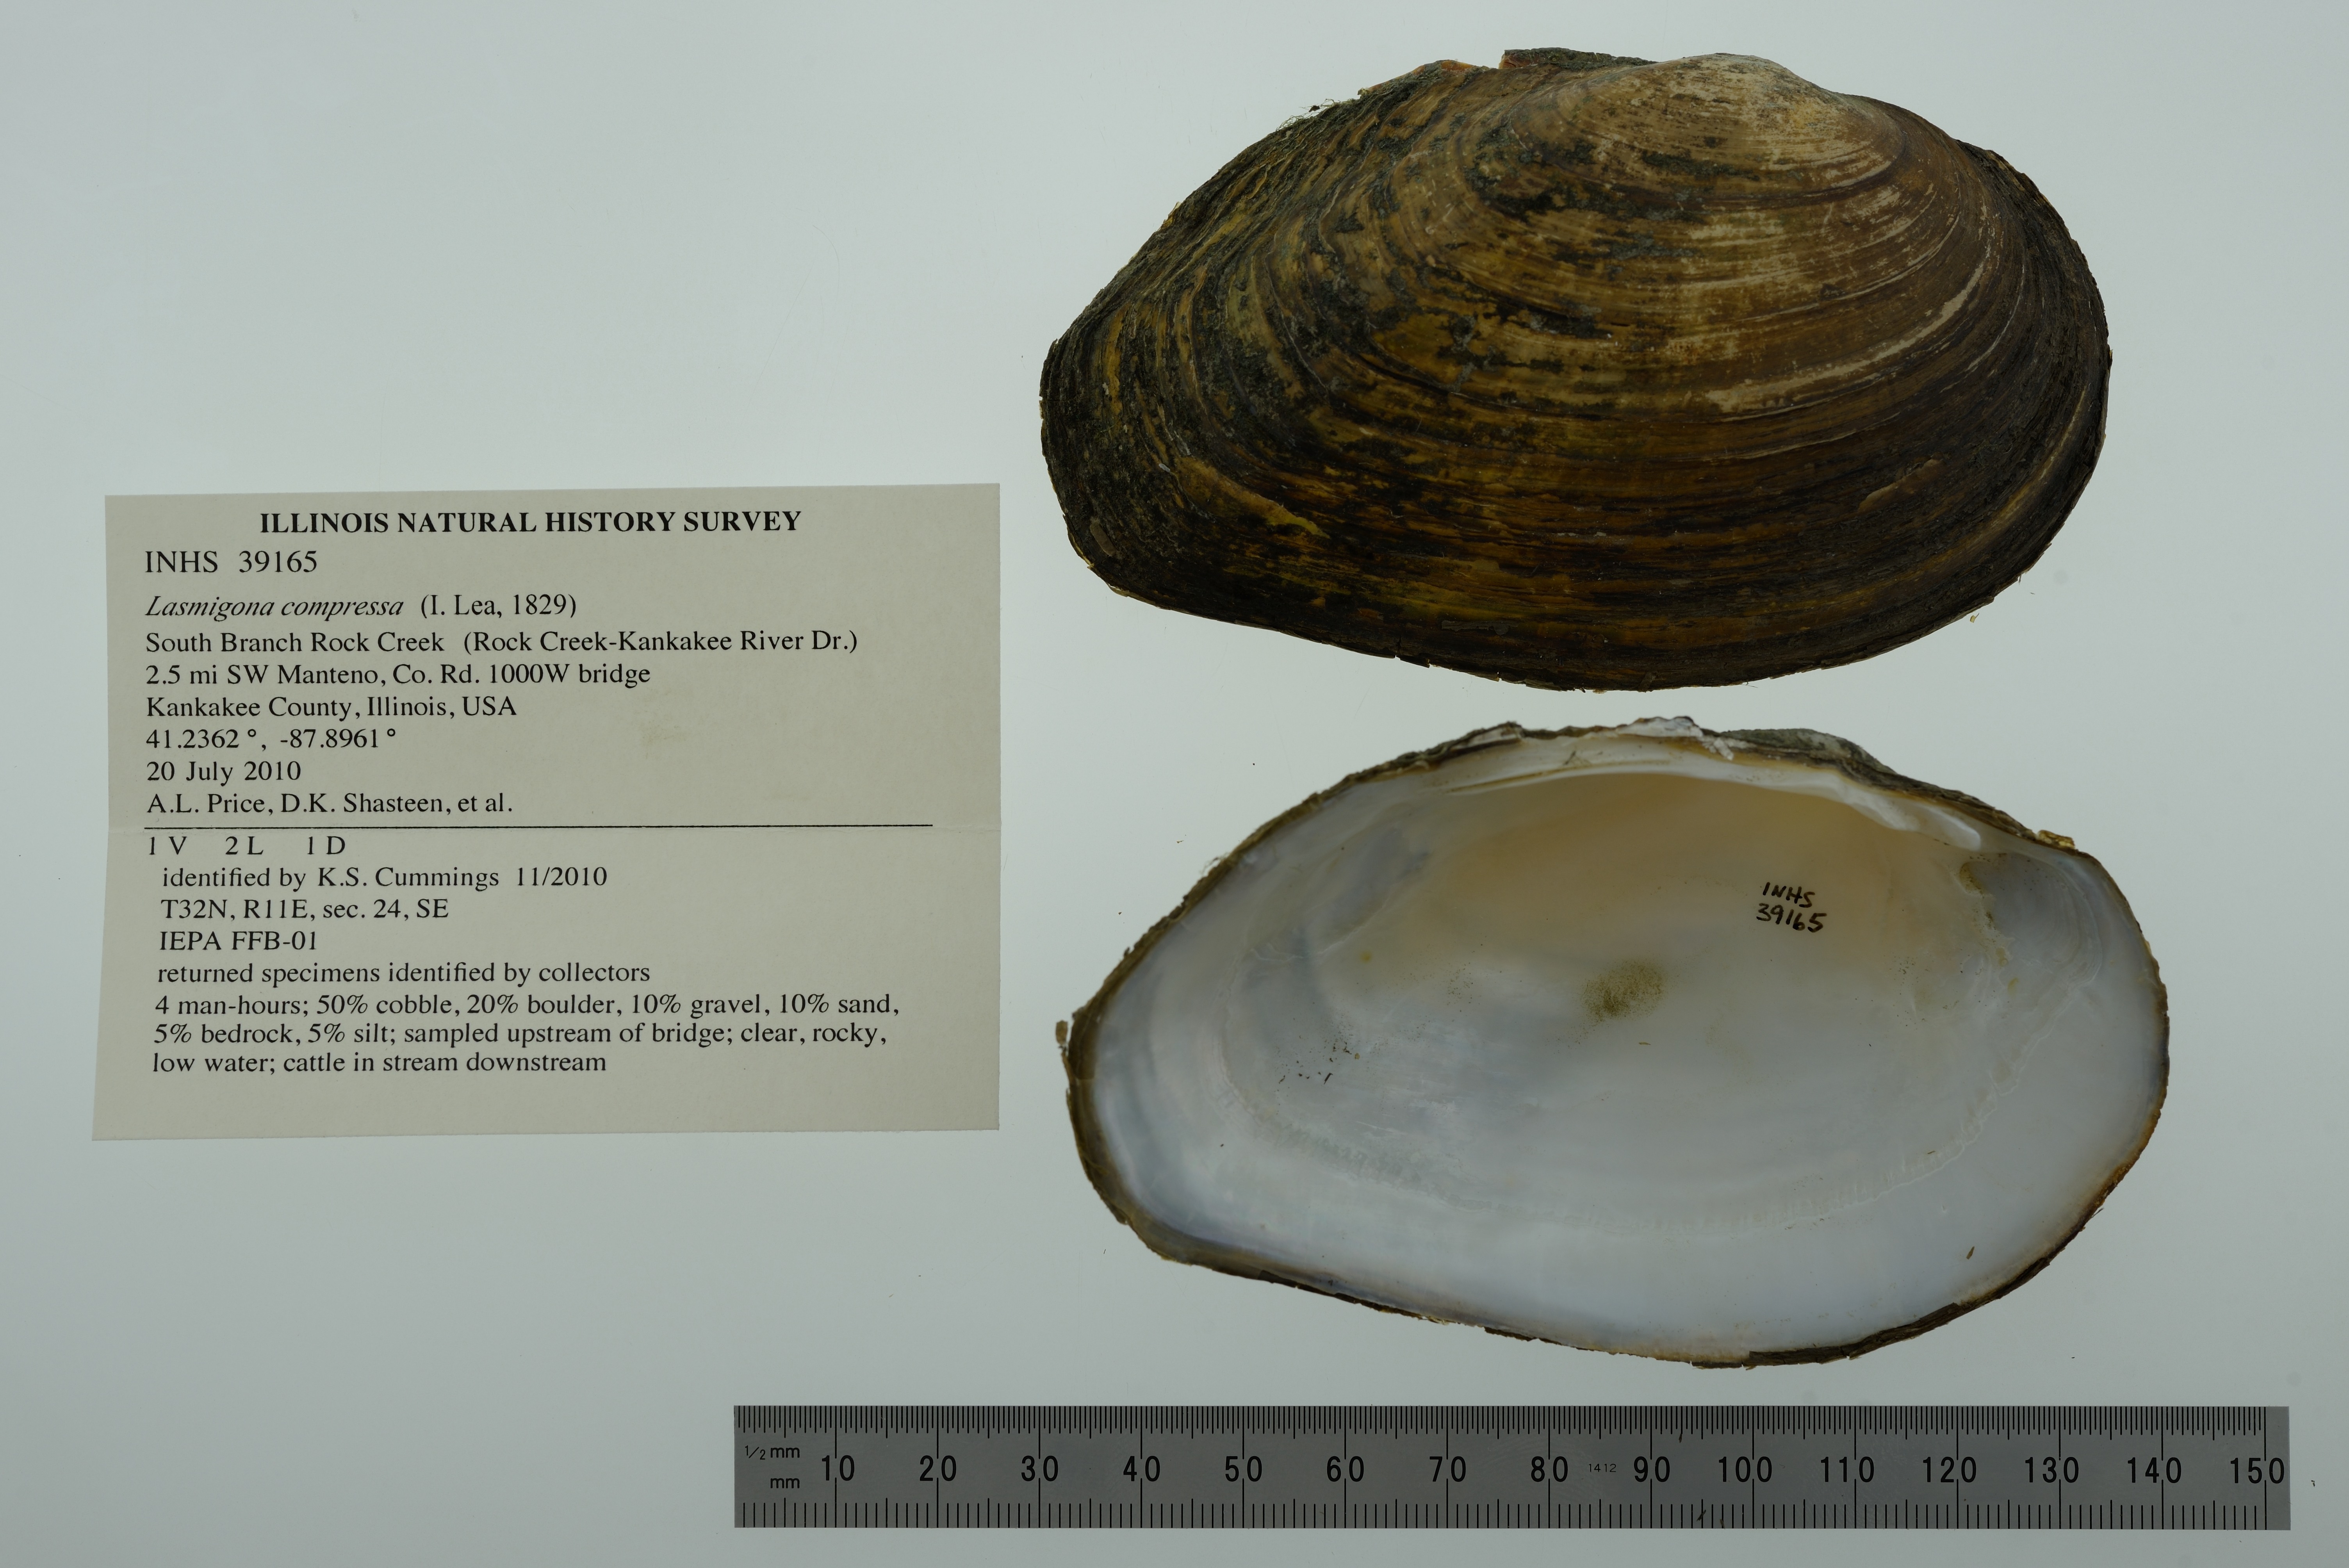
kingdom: Animalia
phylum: Mollusca
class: Bivalvia
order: Unionida
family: Unionidae
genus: Lasmigona
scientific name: Lasmigona compressa
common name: Creek heelsplitter
